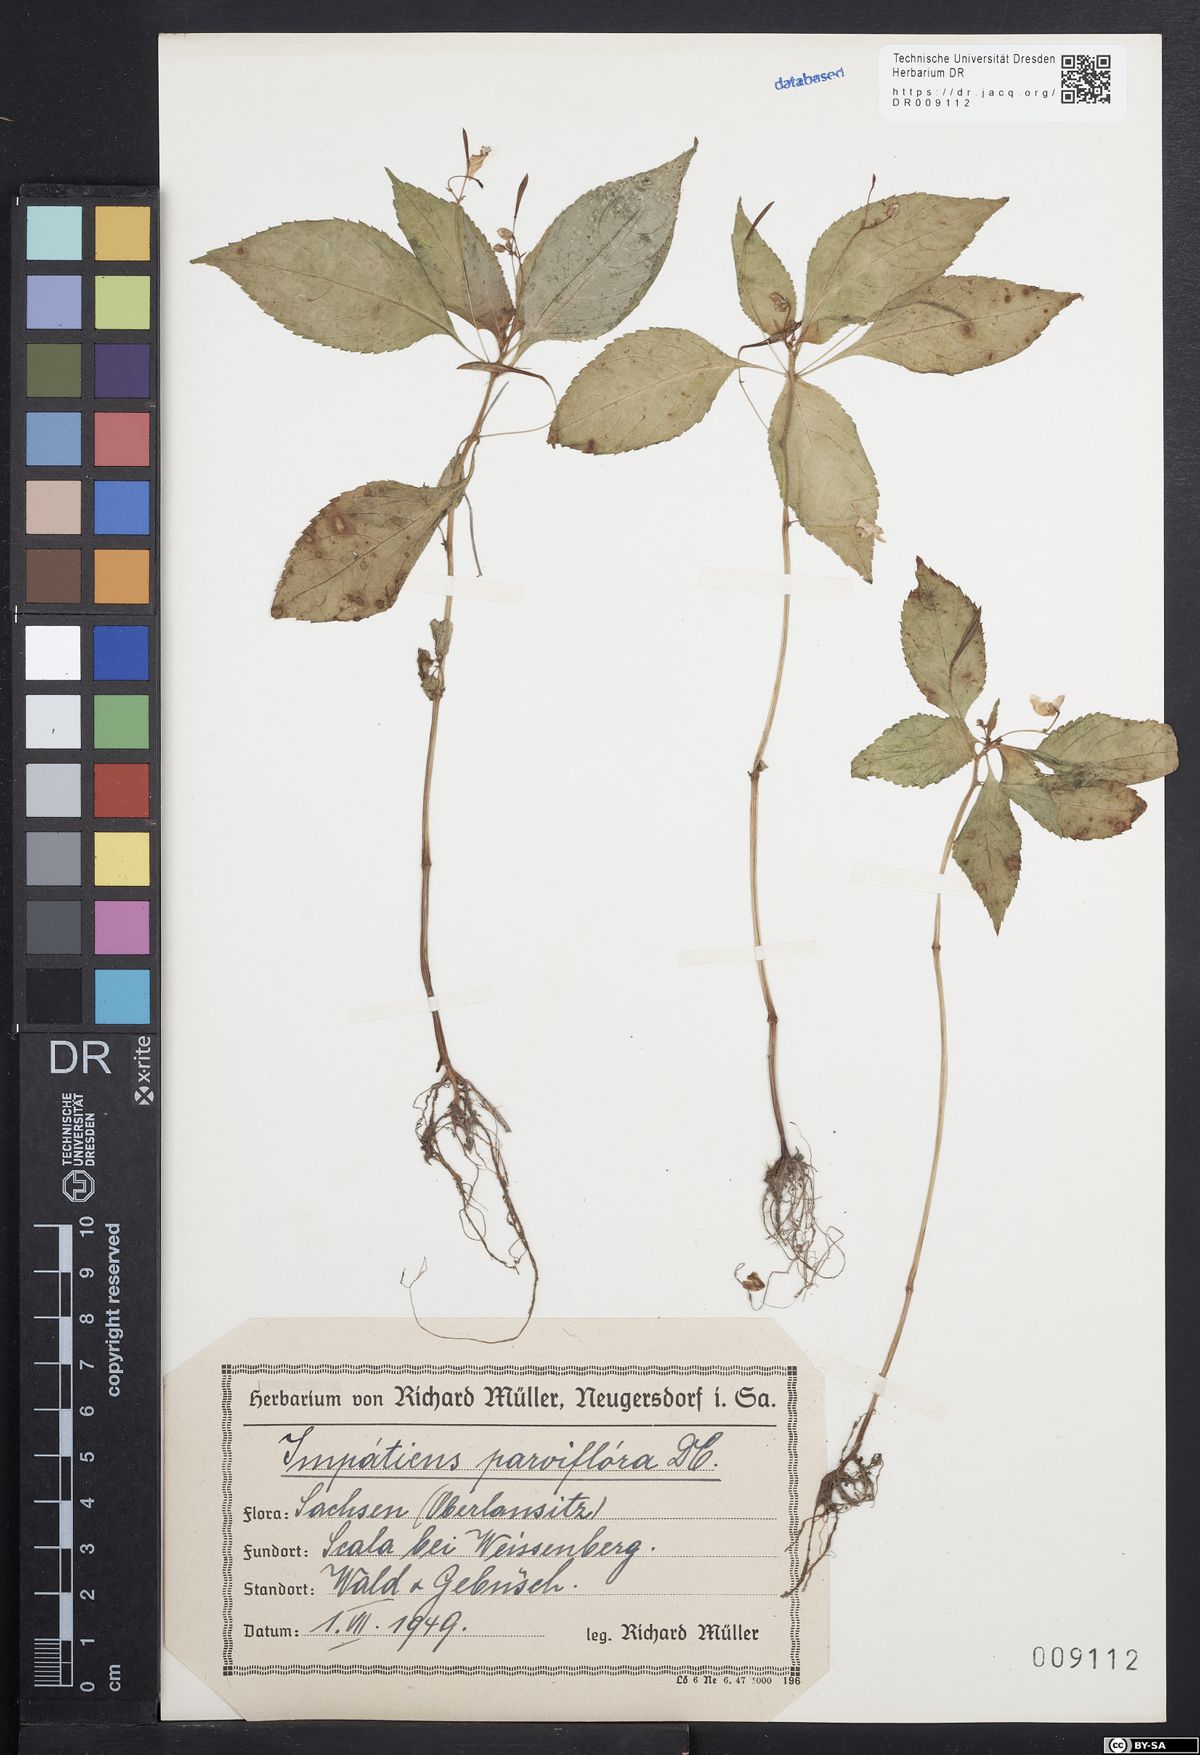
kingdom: Plantae
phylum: Tracheophyta
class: Magnoliopsida
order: Ericales
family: Balsaminaceae
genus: Impatiens
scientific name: Impatiens parviflora
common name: Small balsam
